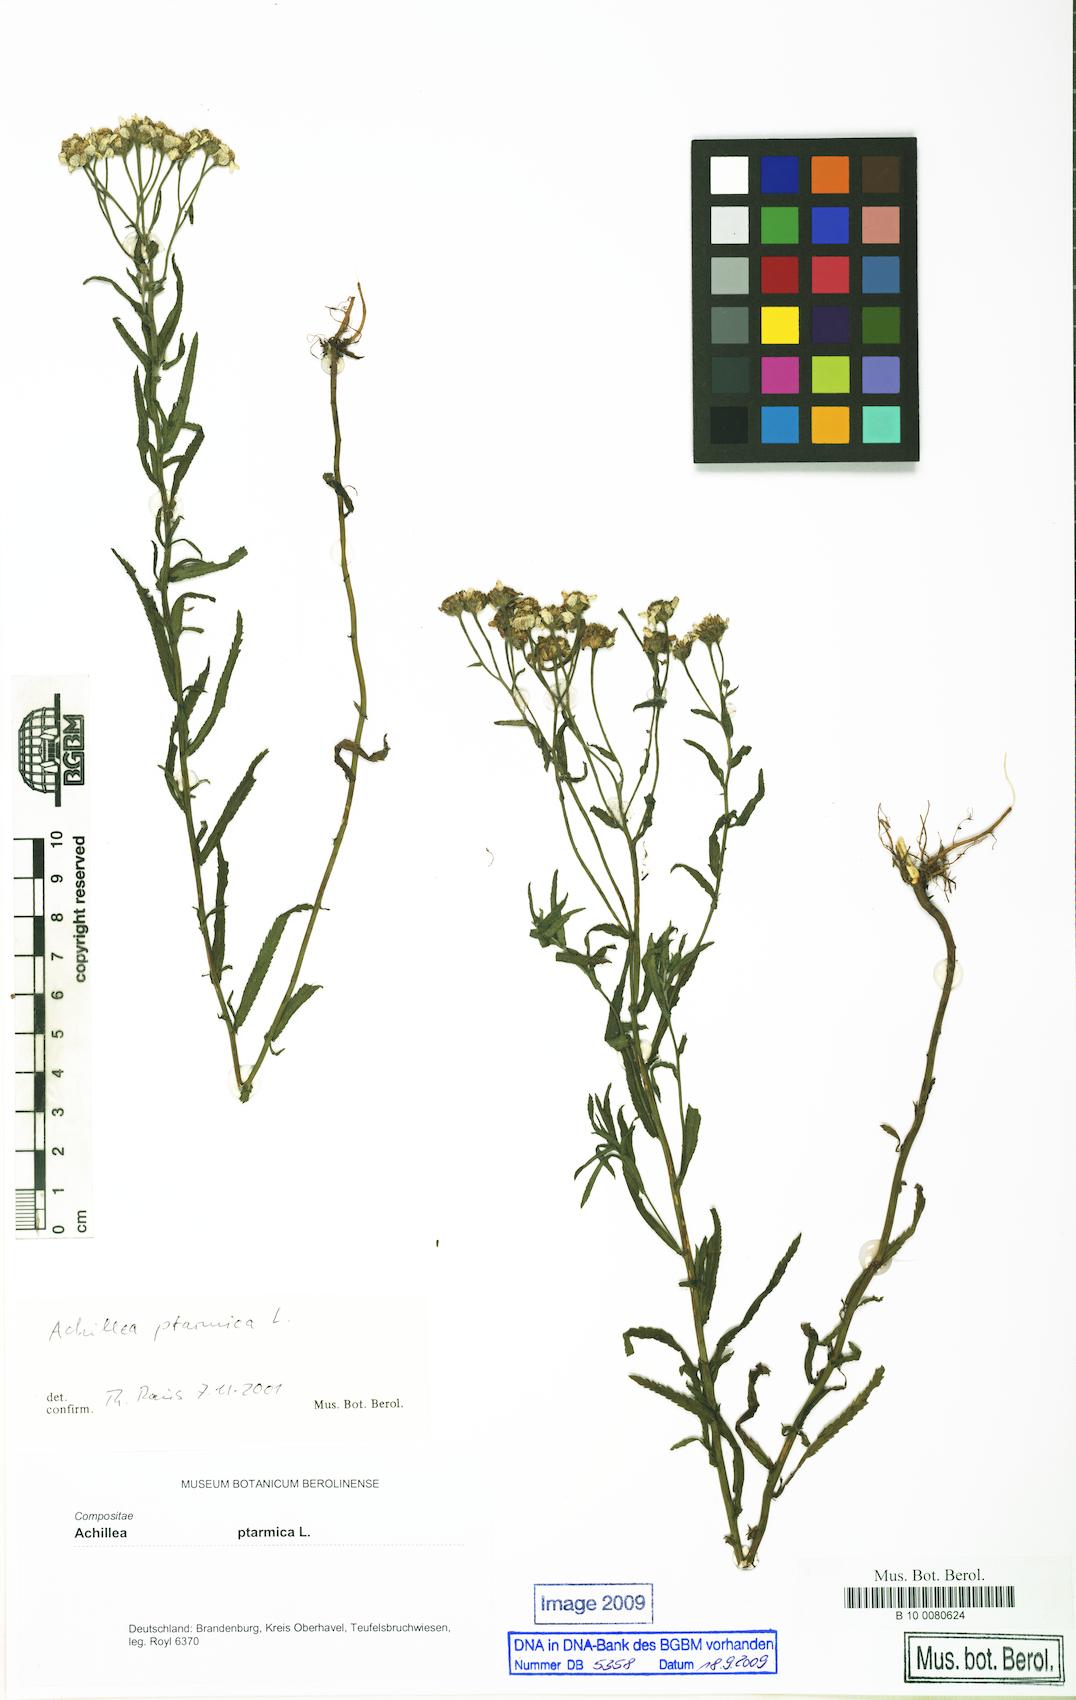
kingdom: Plantae
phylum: Tracheophyta
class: Magnoliopsida
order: Asterales
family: Asteraceae
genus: Achillea
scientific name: Achillea ptarmica
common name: Sneezeweed
